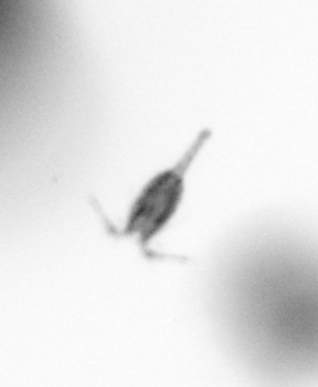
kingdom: Animalia
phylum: Arthropoda
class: Copepoda
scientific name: Copepoda
